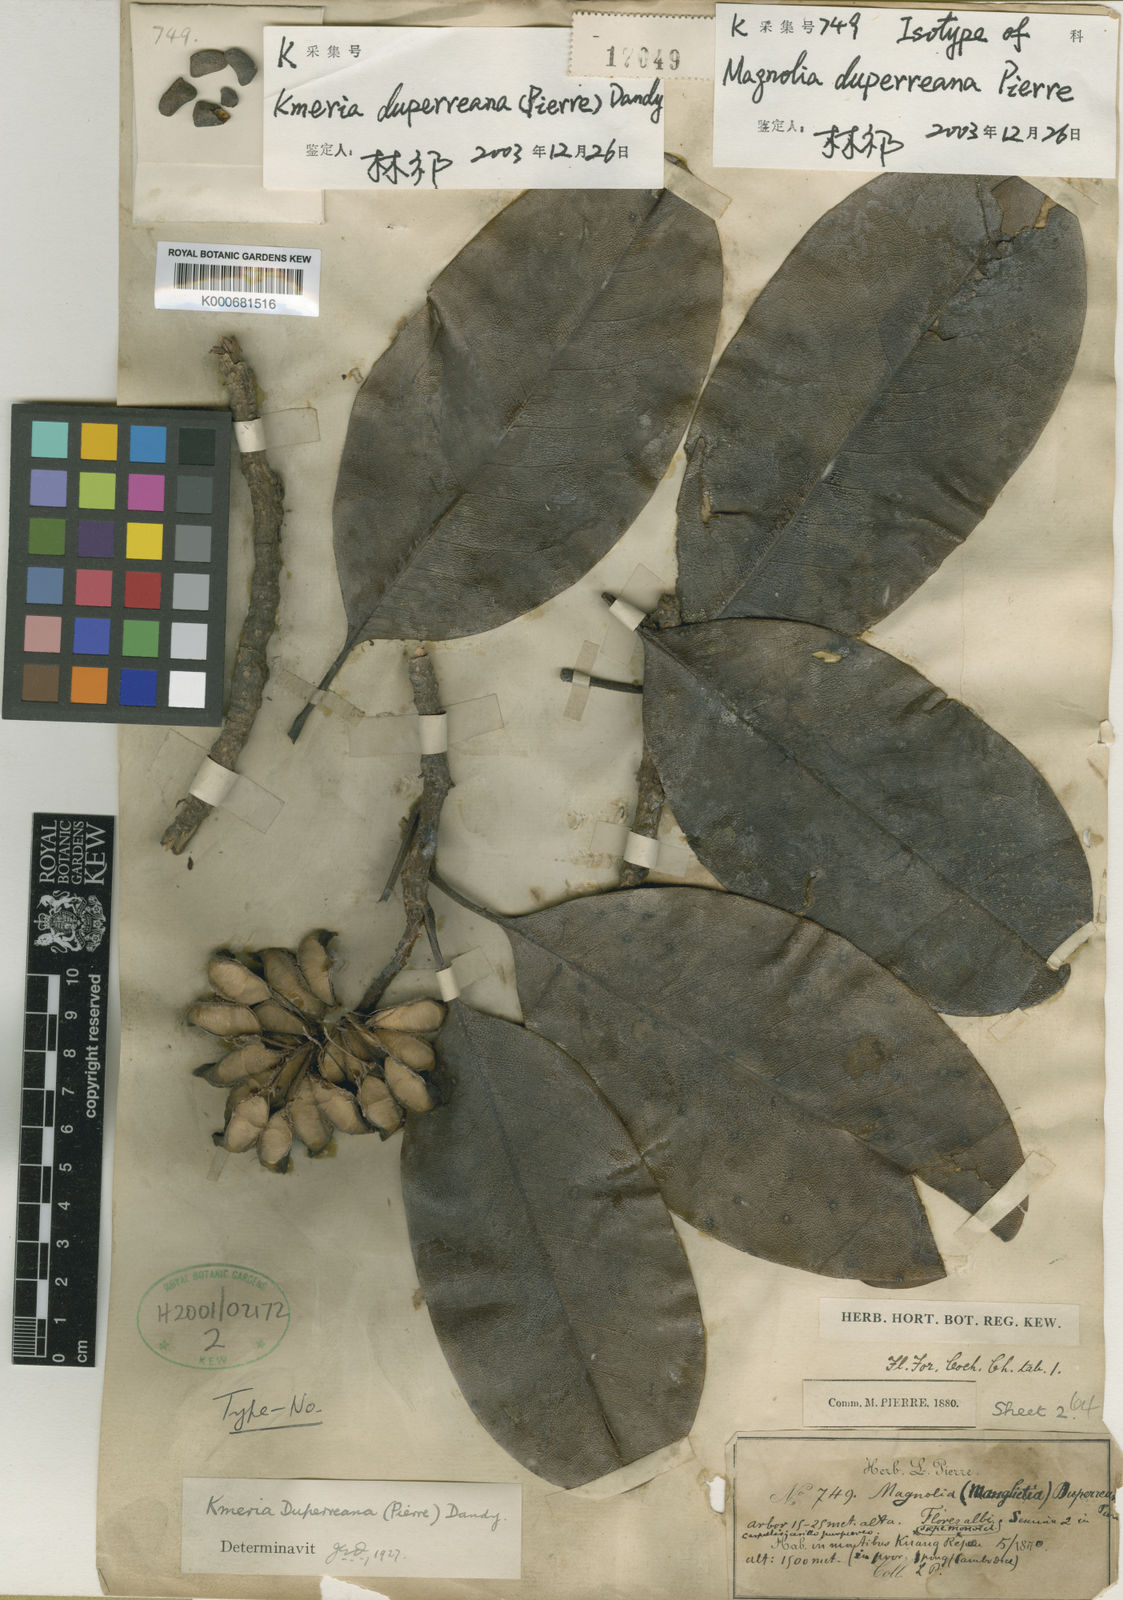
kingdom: Plantae
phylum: Tracheophyta
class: Magnoliopsida
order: Magnoliales
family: Magnoliaceae
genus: Magnolia
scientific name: Magnolia duperreana
